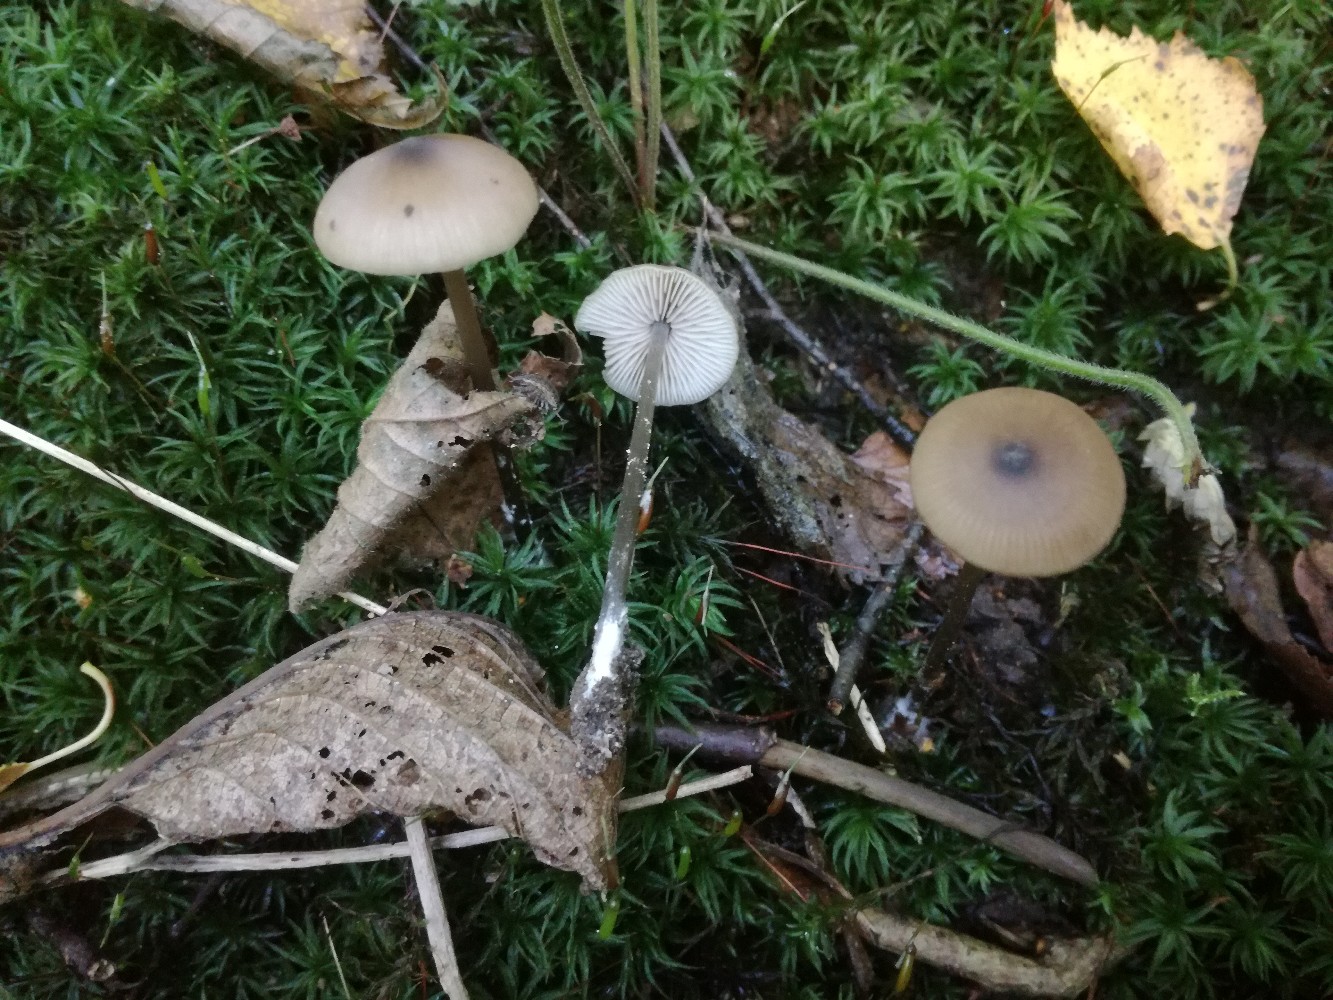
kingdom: Fungi
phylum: Basidiomycota
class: Agaricomycetes
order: Agaricales
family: Entolomataceae
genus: Entoloma
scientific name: Entoloma hebes
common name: krat-rødblad
